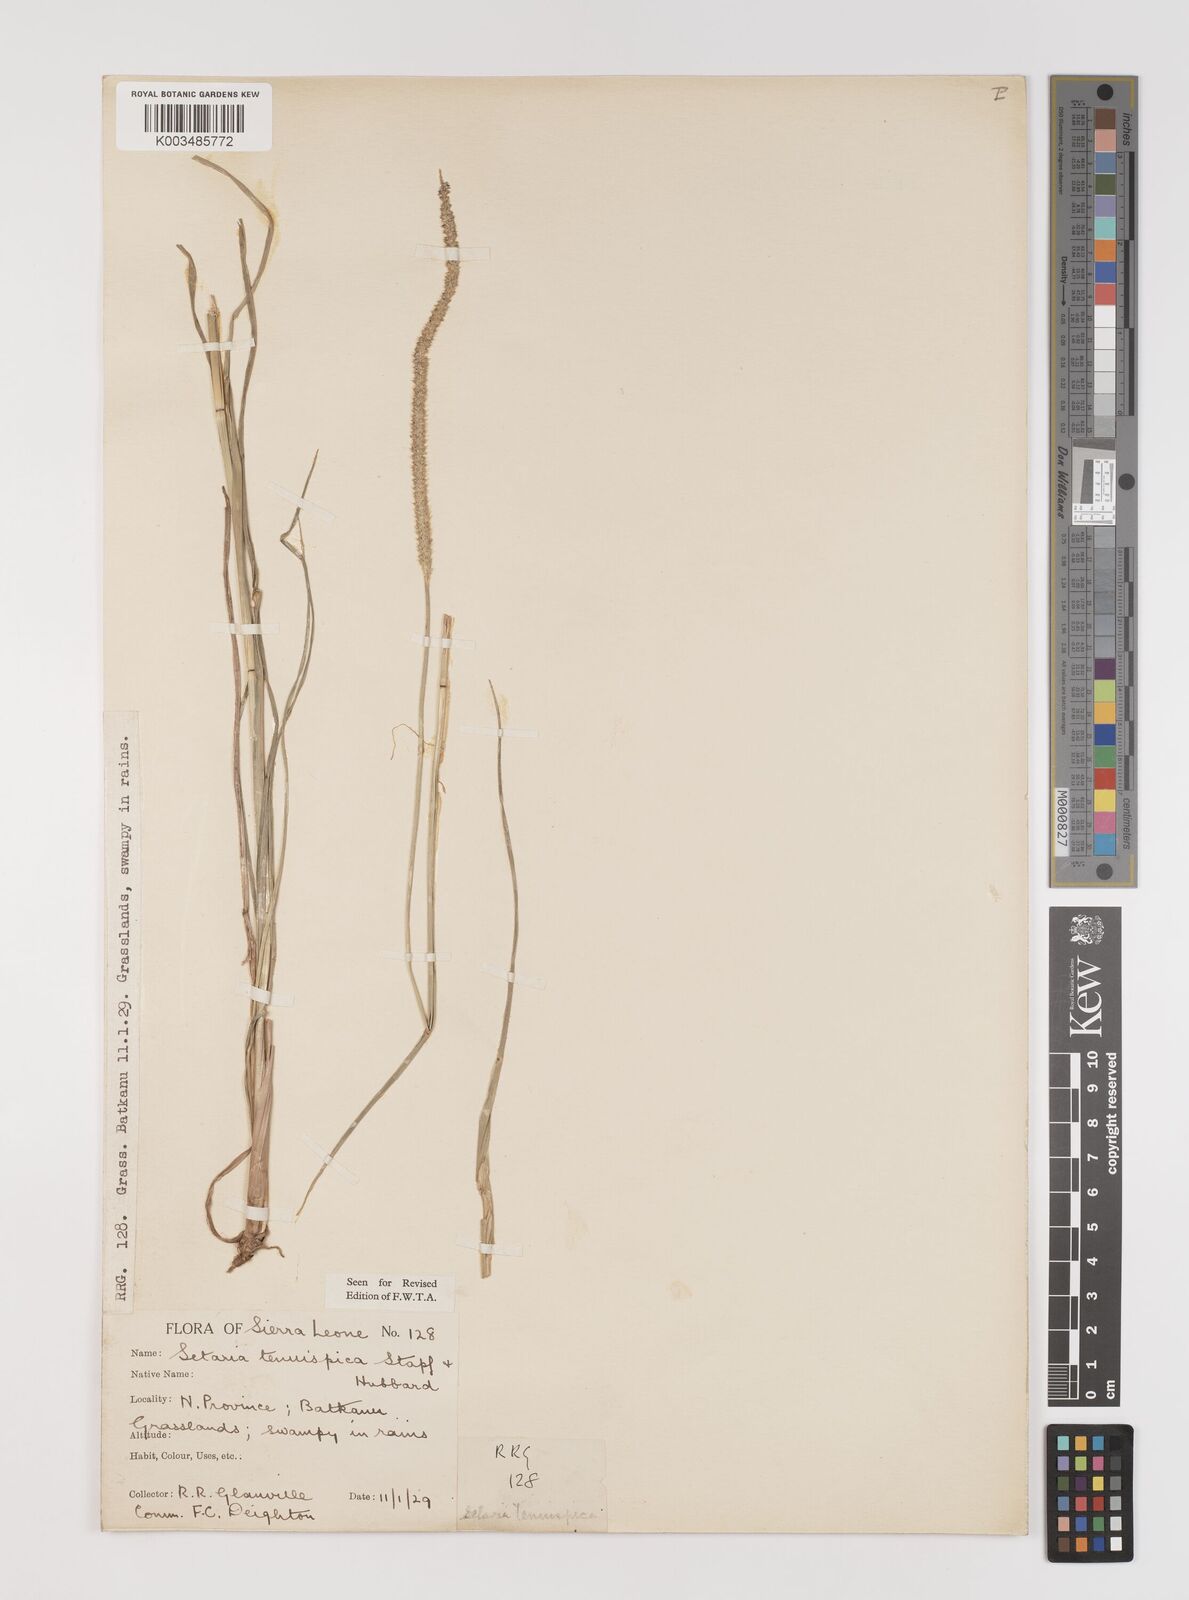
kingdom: Plantae
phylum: Tracheophyta
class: Liliopsida
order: Poales
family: Poaceae
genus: Setaria
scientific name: Setaria sphacelata
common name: African bristlegrass
